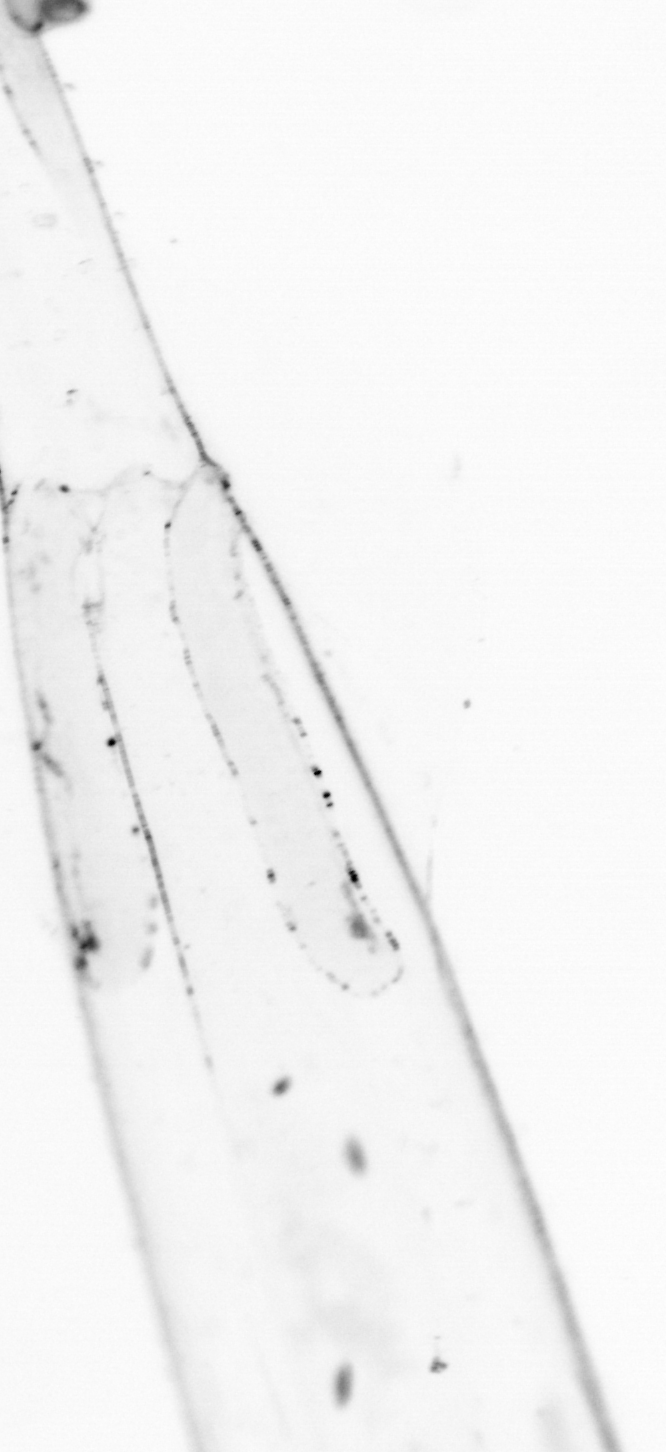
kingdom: Animalia
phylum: Chaetognatha
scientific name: Chaetognatha
